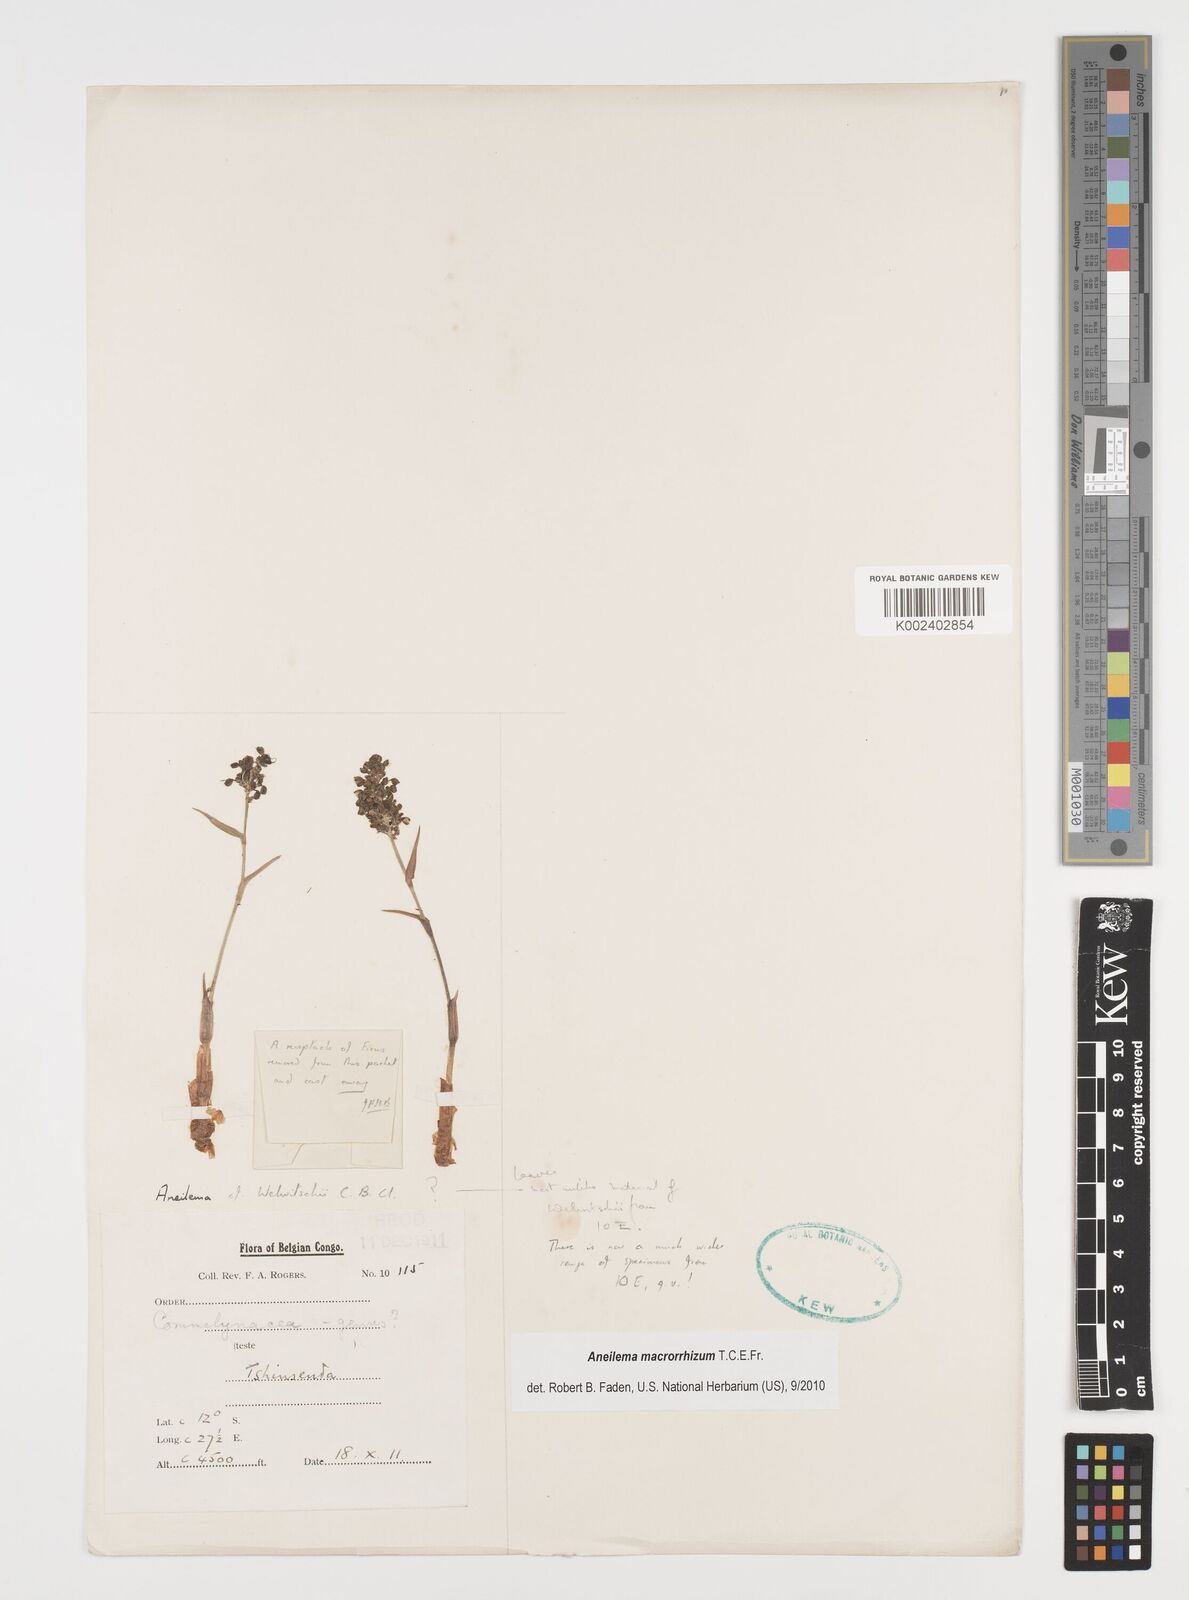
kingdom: Plantae
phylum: Tracheophyta
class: Liliopsida
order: Commelinales
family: Commelinaceae
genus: Aneilema
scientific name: Aneilema macrorrhizum
